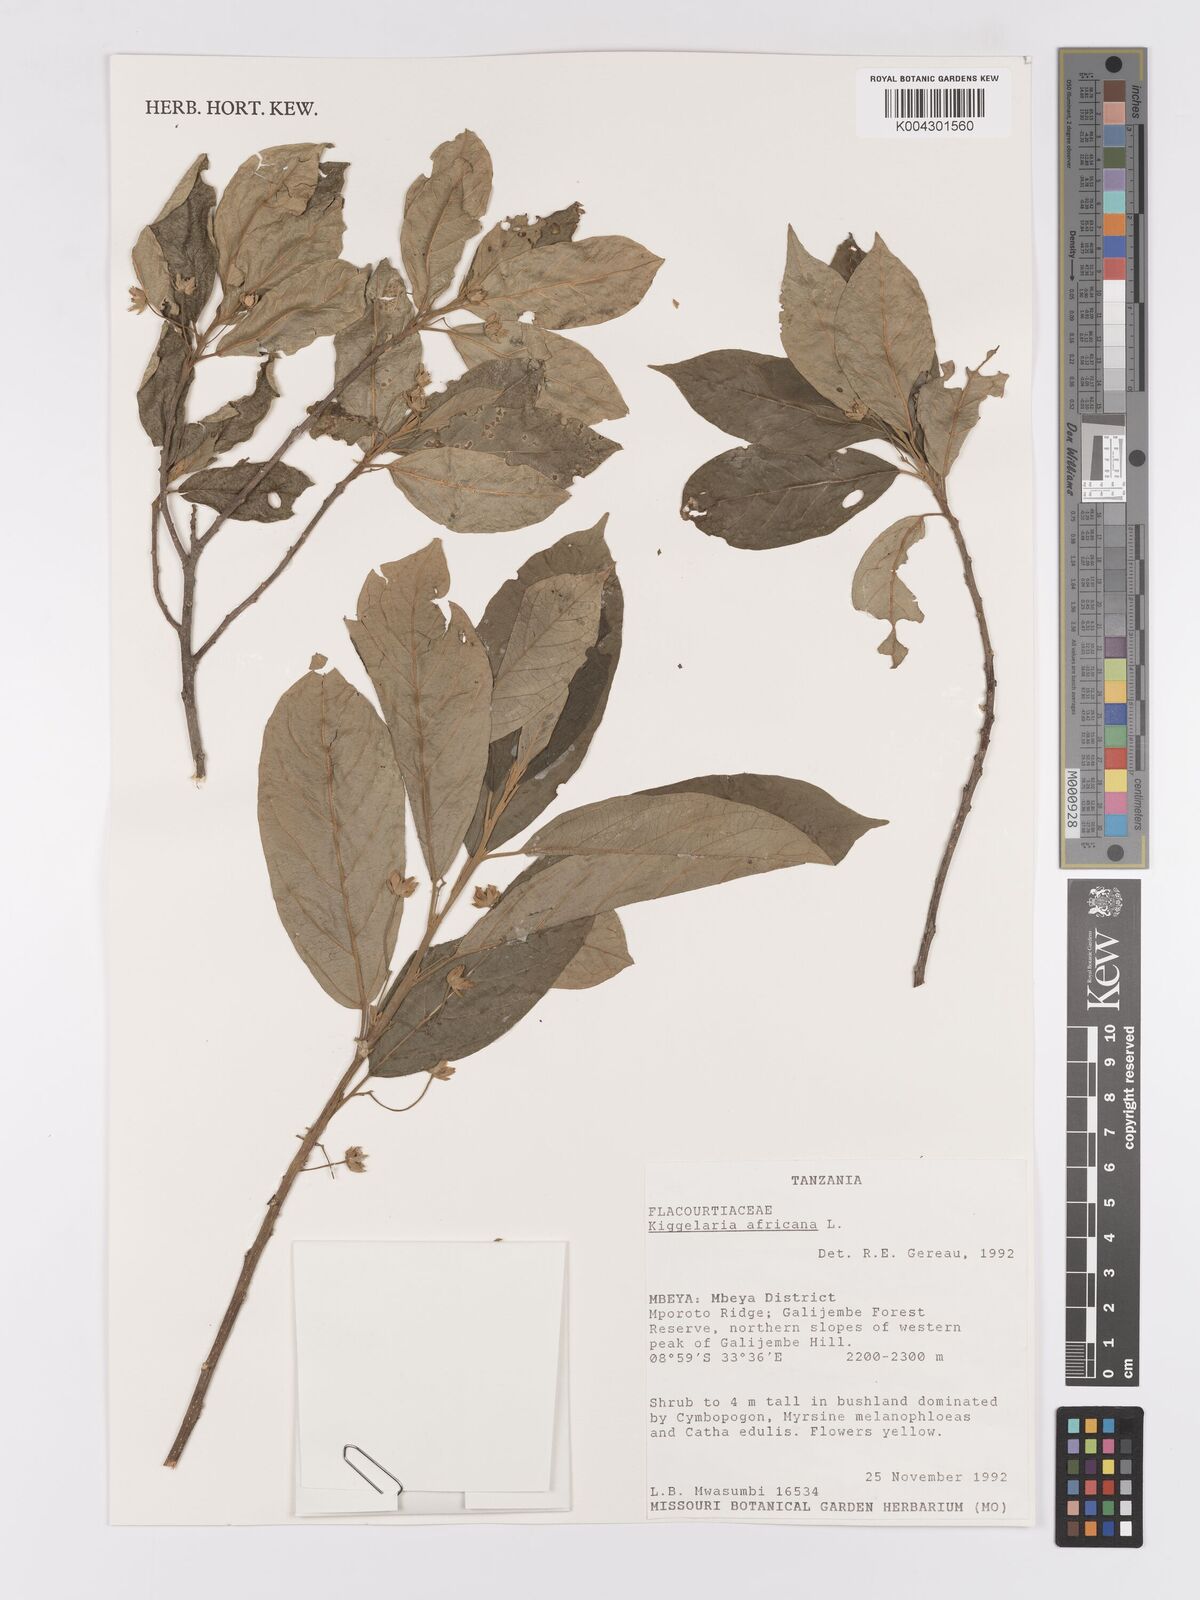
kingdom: Plantae
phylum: Tracheophyta
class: Magnoliopsida
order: Malpighiales
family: Achariaceae
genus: Kiggelaria
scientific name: Kiggelaria africana
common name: Wild peach
